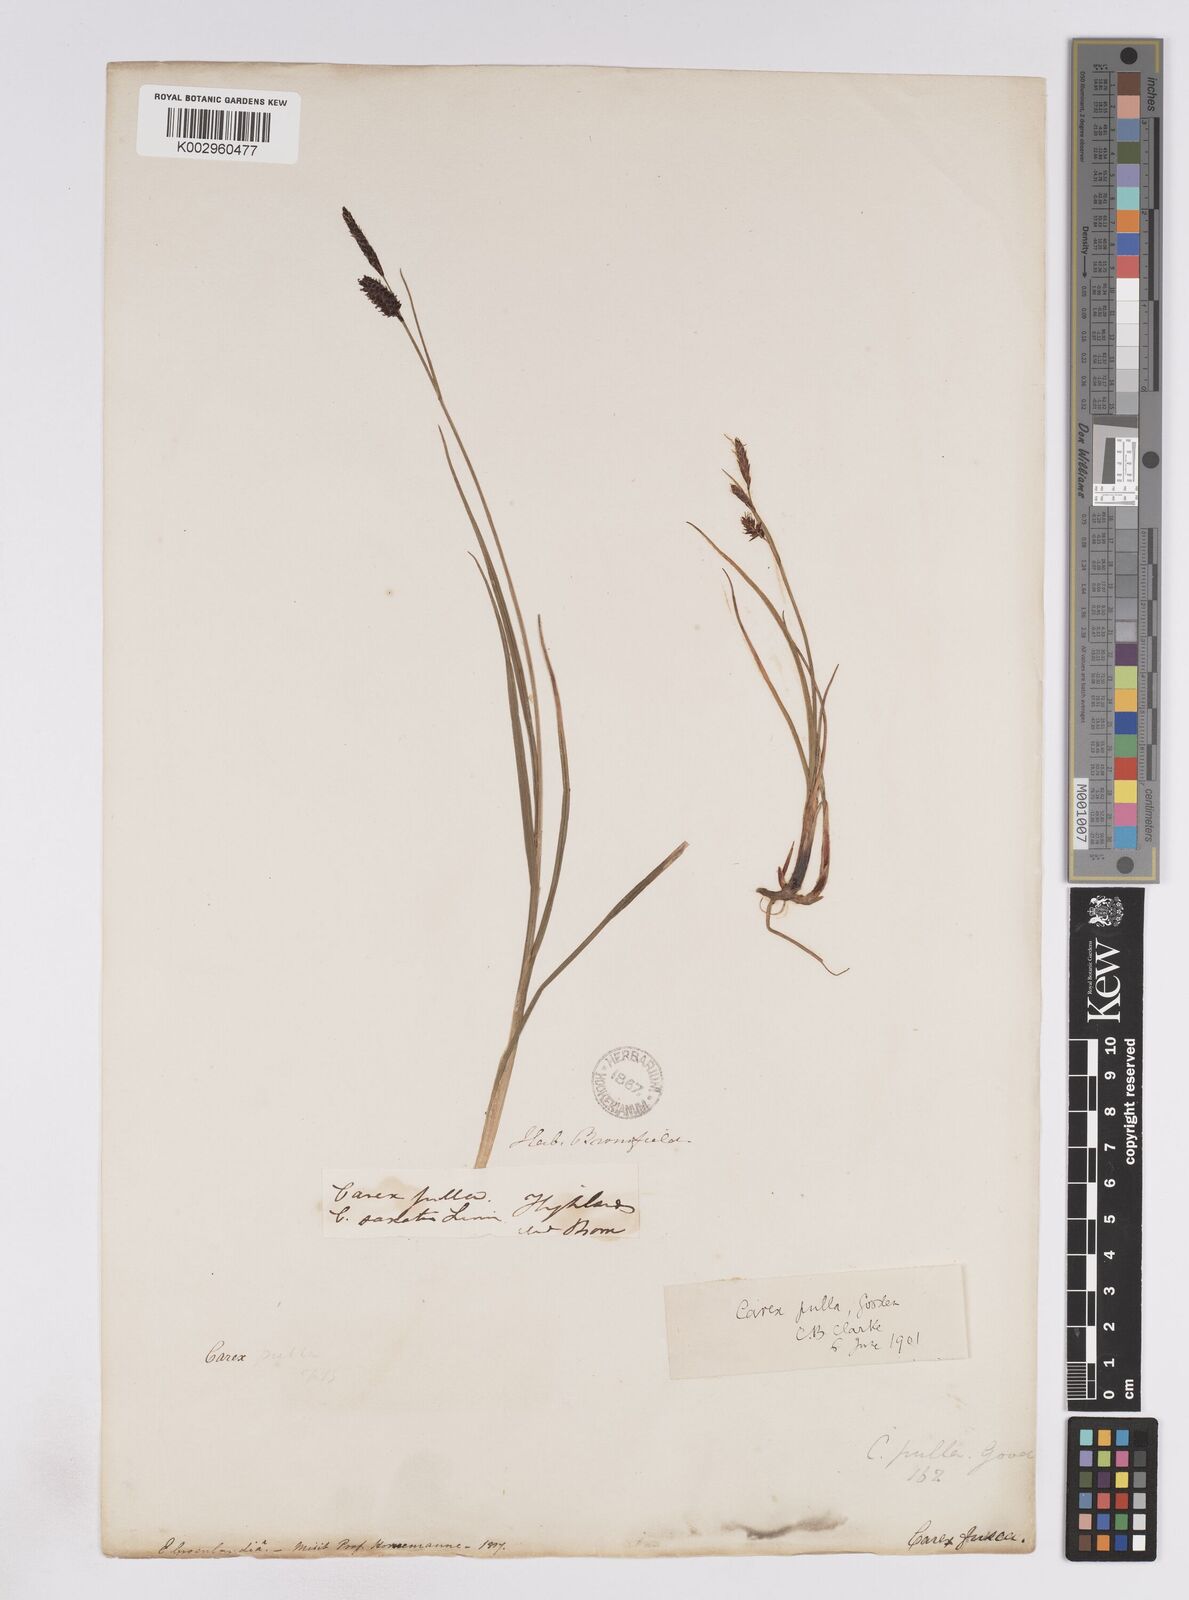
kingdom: Plantae
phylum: Tracheophyta
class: Liliopsida
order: Poales
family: Cyperaceae
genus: Carex
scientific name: Carex saxatilis
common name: Russet sedge
